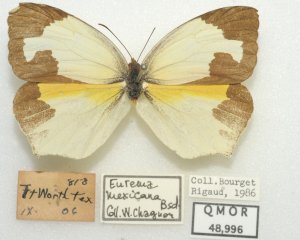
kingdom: Animalia
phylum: Arthropoda
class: Insecta
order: Lepidoptera
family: Pieridae
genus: Eurema
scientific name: Eurema mexicana
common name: Mexican Yellow
